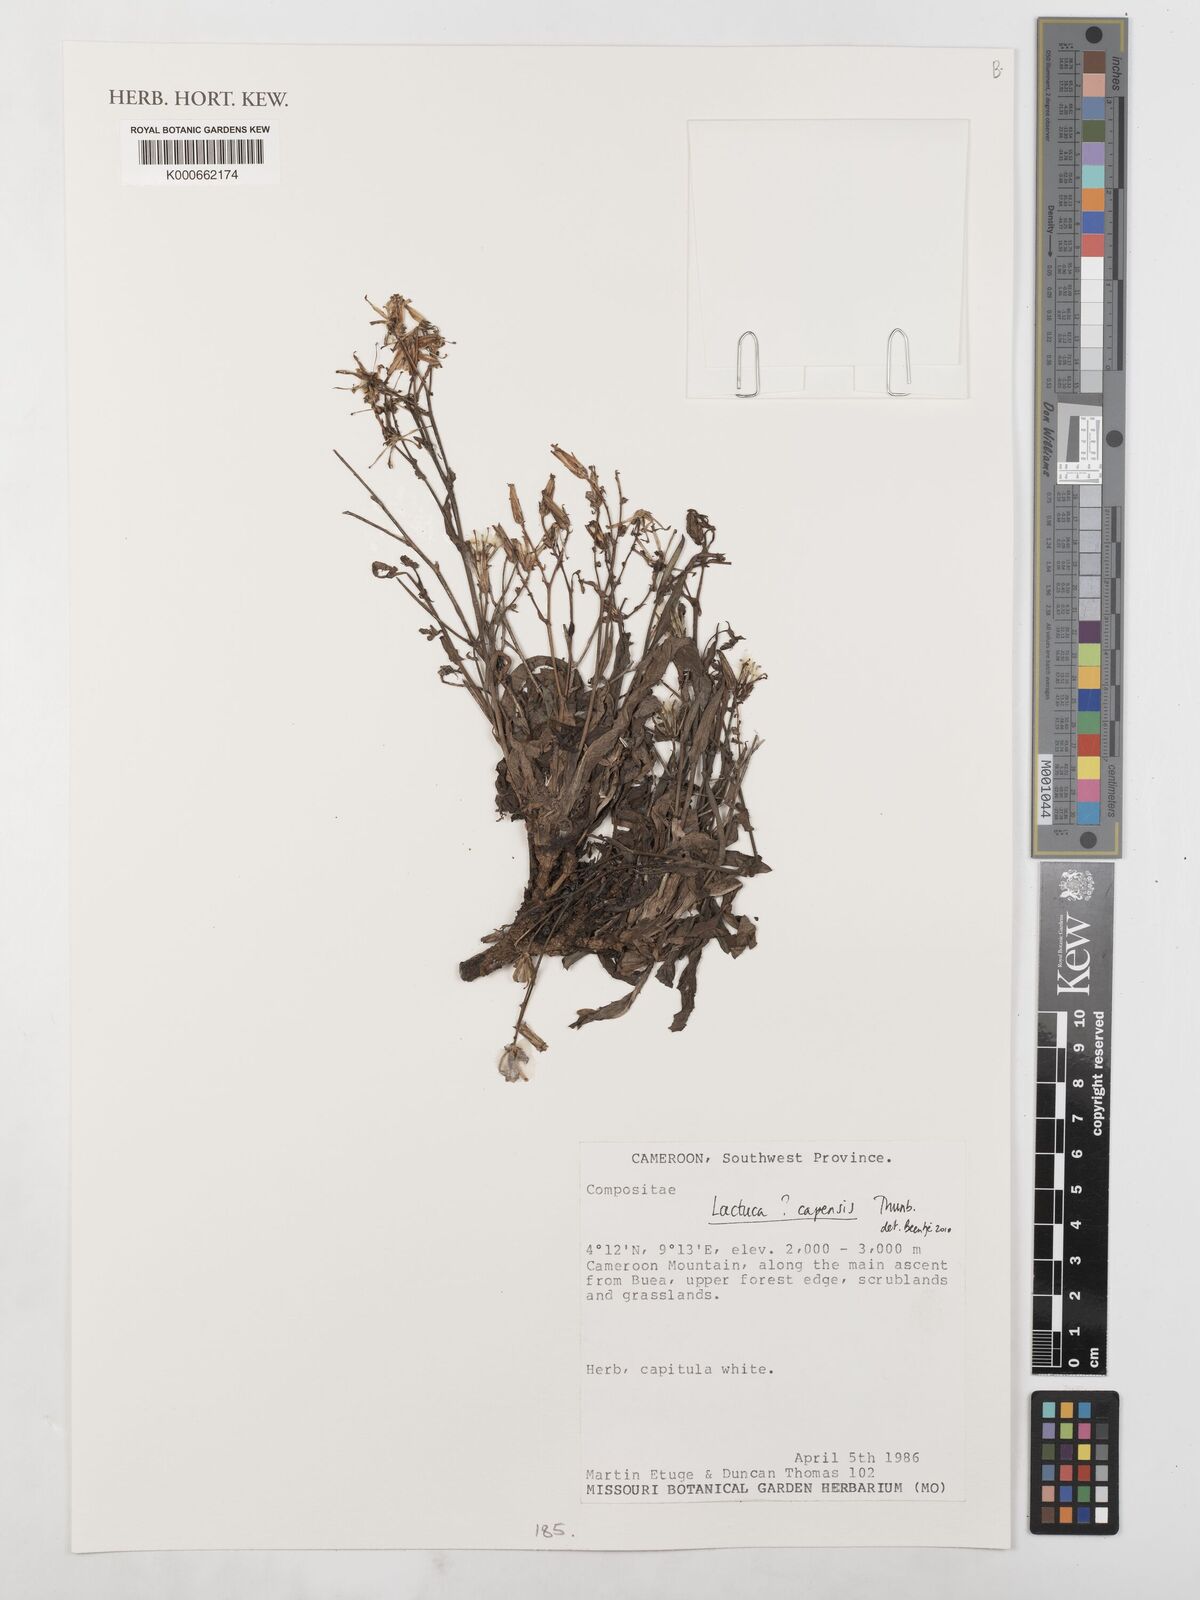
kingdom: Plantae
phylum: Tracheophyta
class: Magnoliopsida
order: Asterales
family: Asteraceae
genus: Lactuca
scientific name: Lactuca inermis
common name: Wild lettuce
